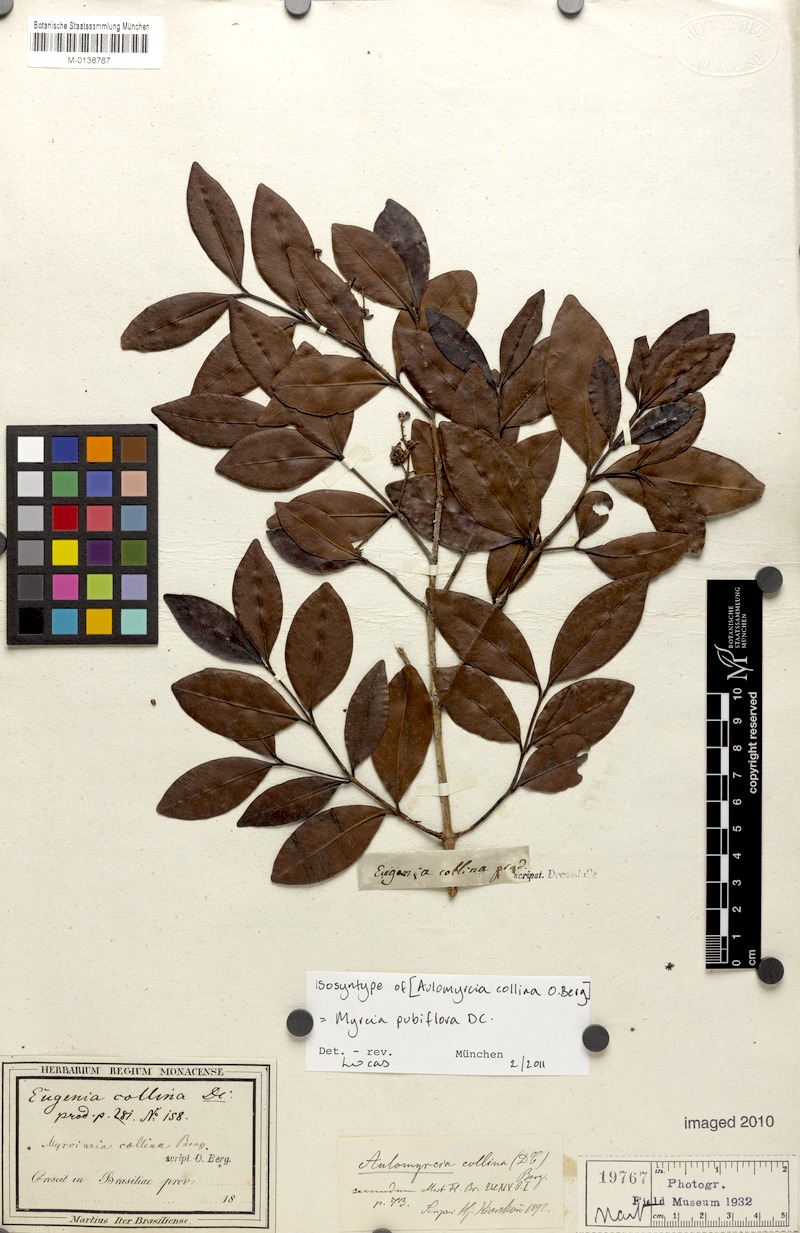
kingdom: Plantae
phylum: Tracheophyta
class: Magnoliopsida
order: Myrtales
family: Myrtaceae
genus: Myrcia
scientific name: Myrcia pubiflora
